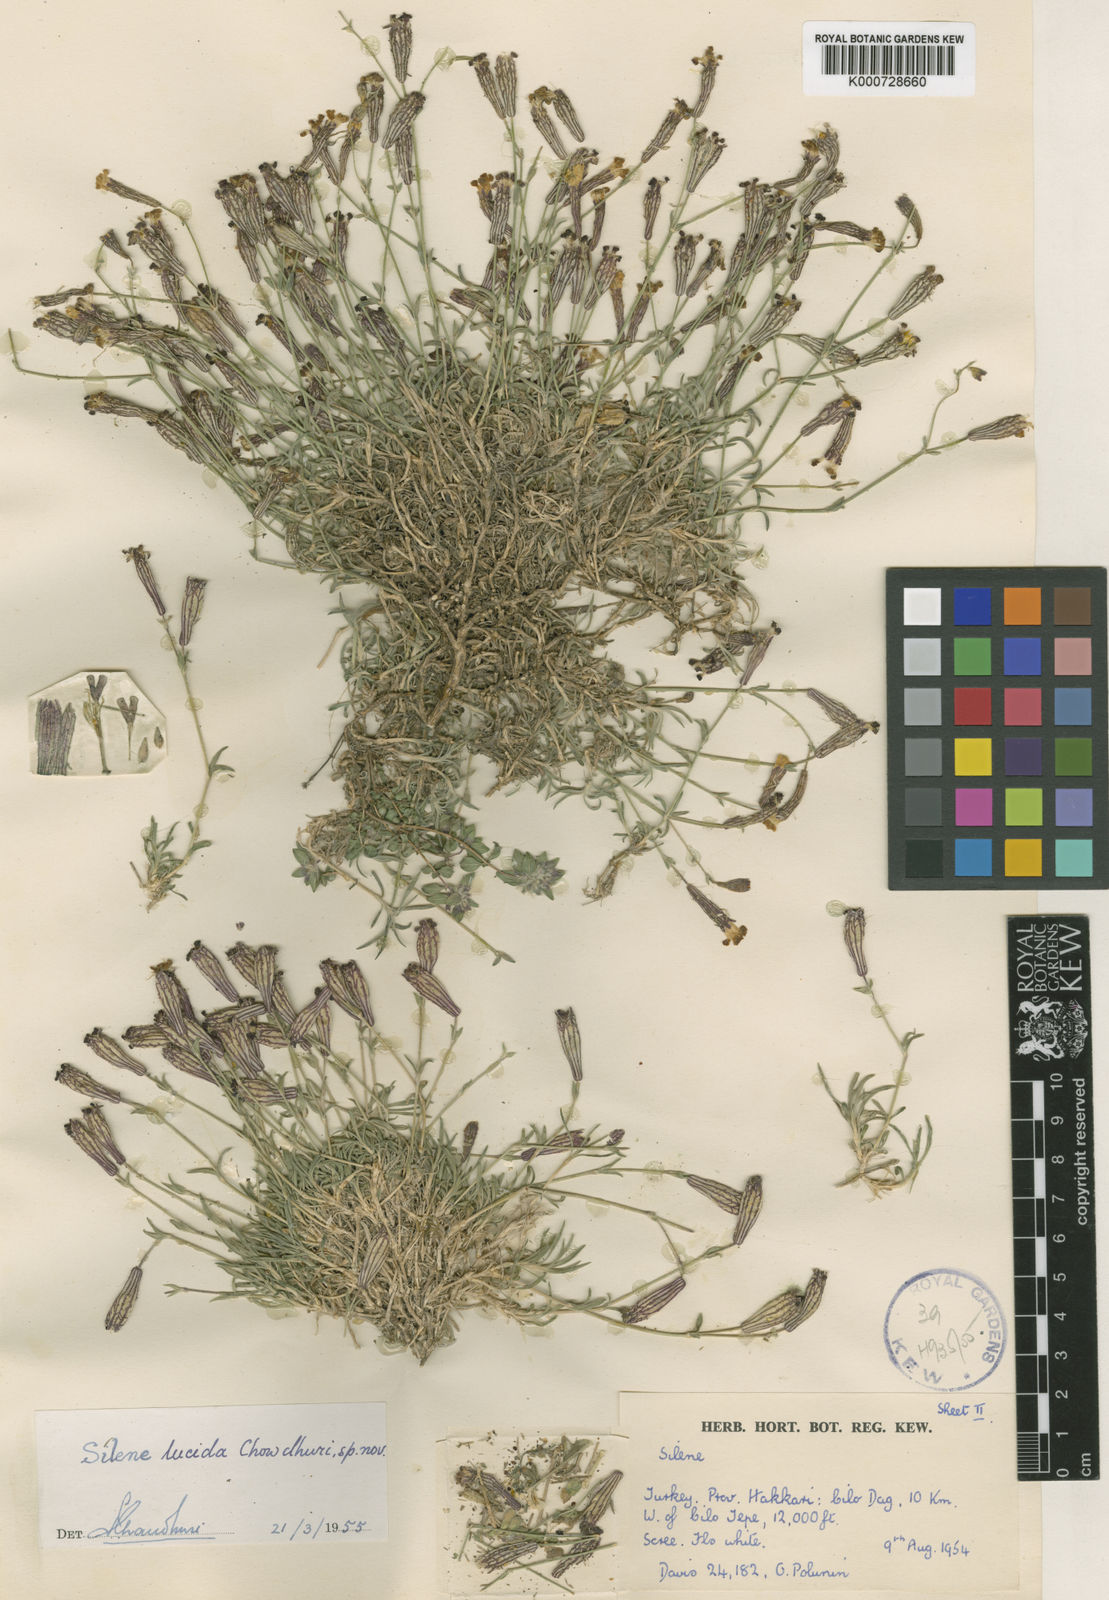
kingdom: Plantae
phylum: Tracheophyta
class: Magnoliopsida
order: Caryophyllales
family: Caryophyllaceae
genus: Silene
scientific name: Silene lucida
